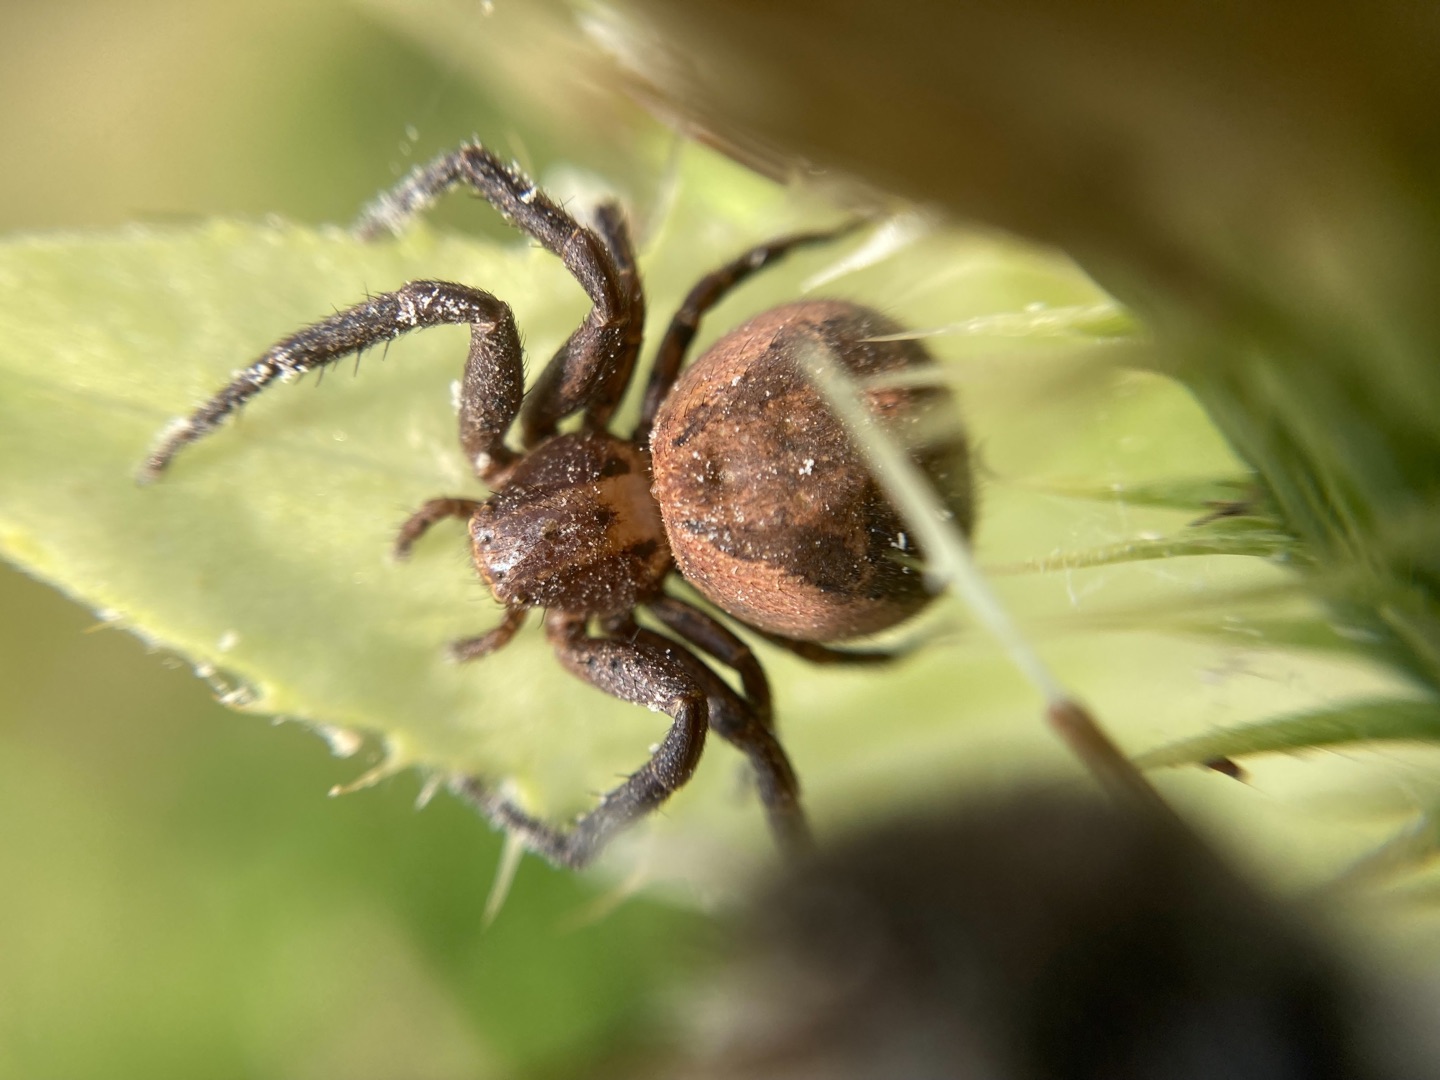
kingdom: Animalia
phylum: Arthropoda
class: Arachnida
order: Araneae
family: Thomisidae
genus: Xysticus
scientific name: Xysticus kochi
